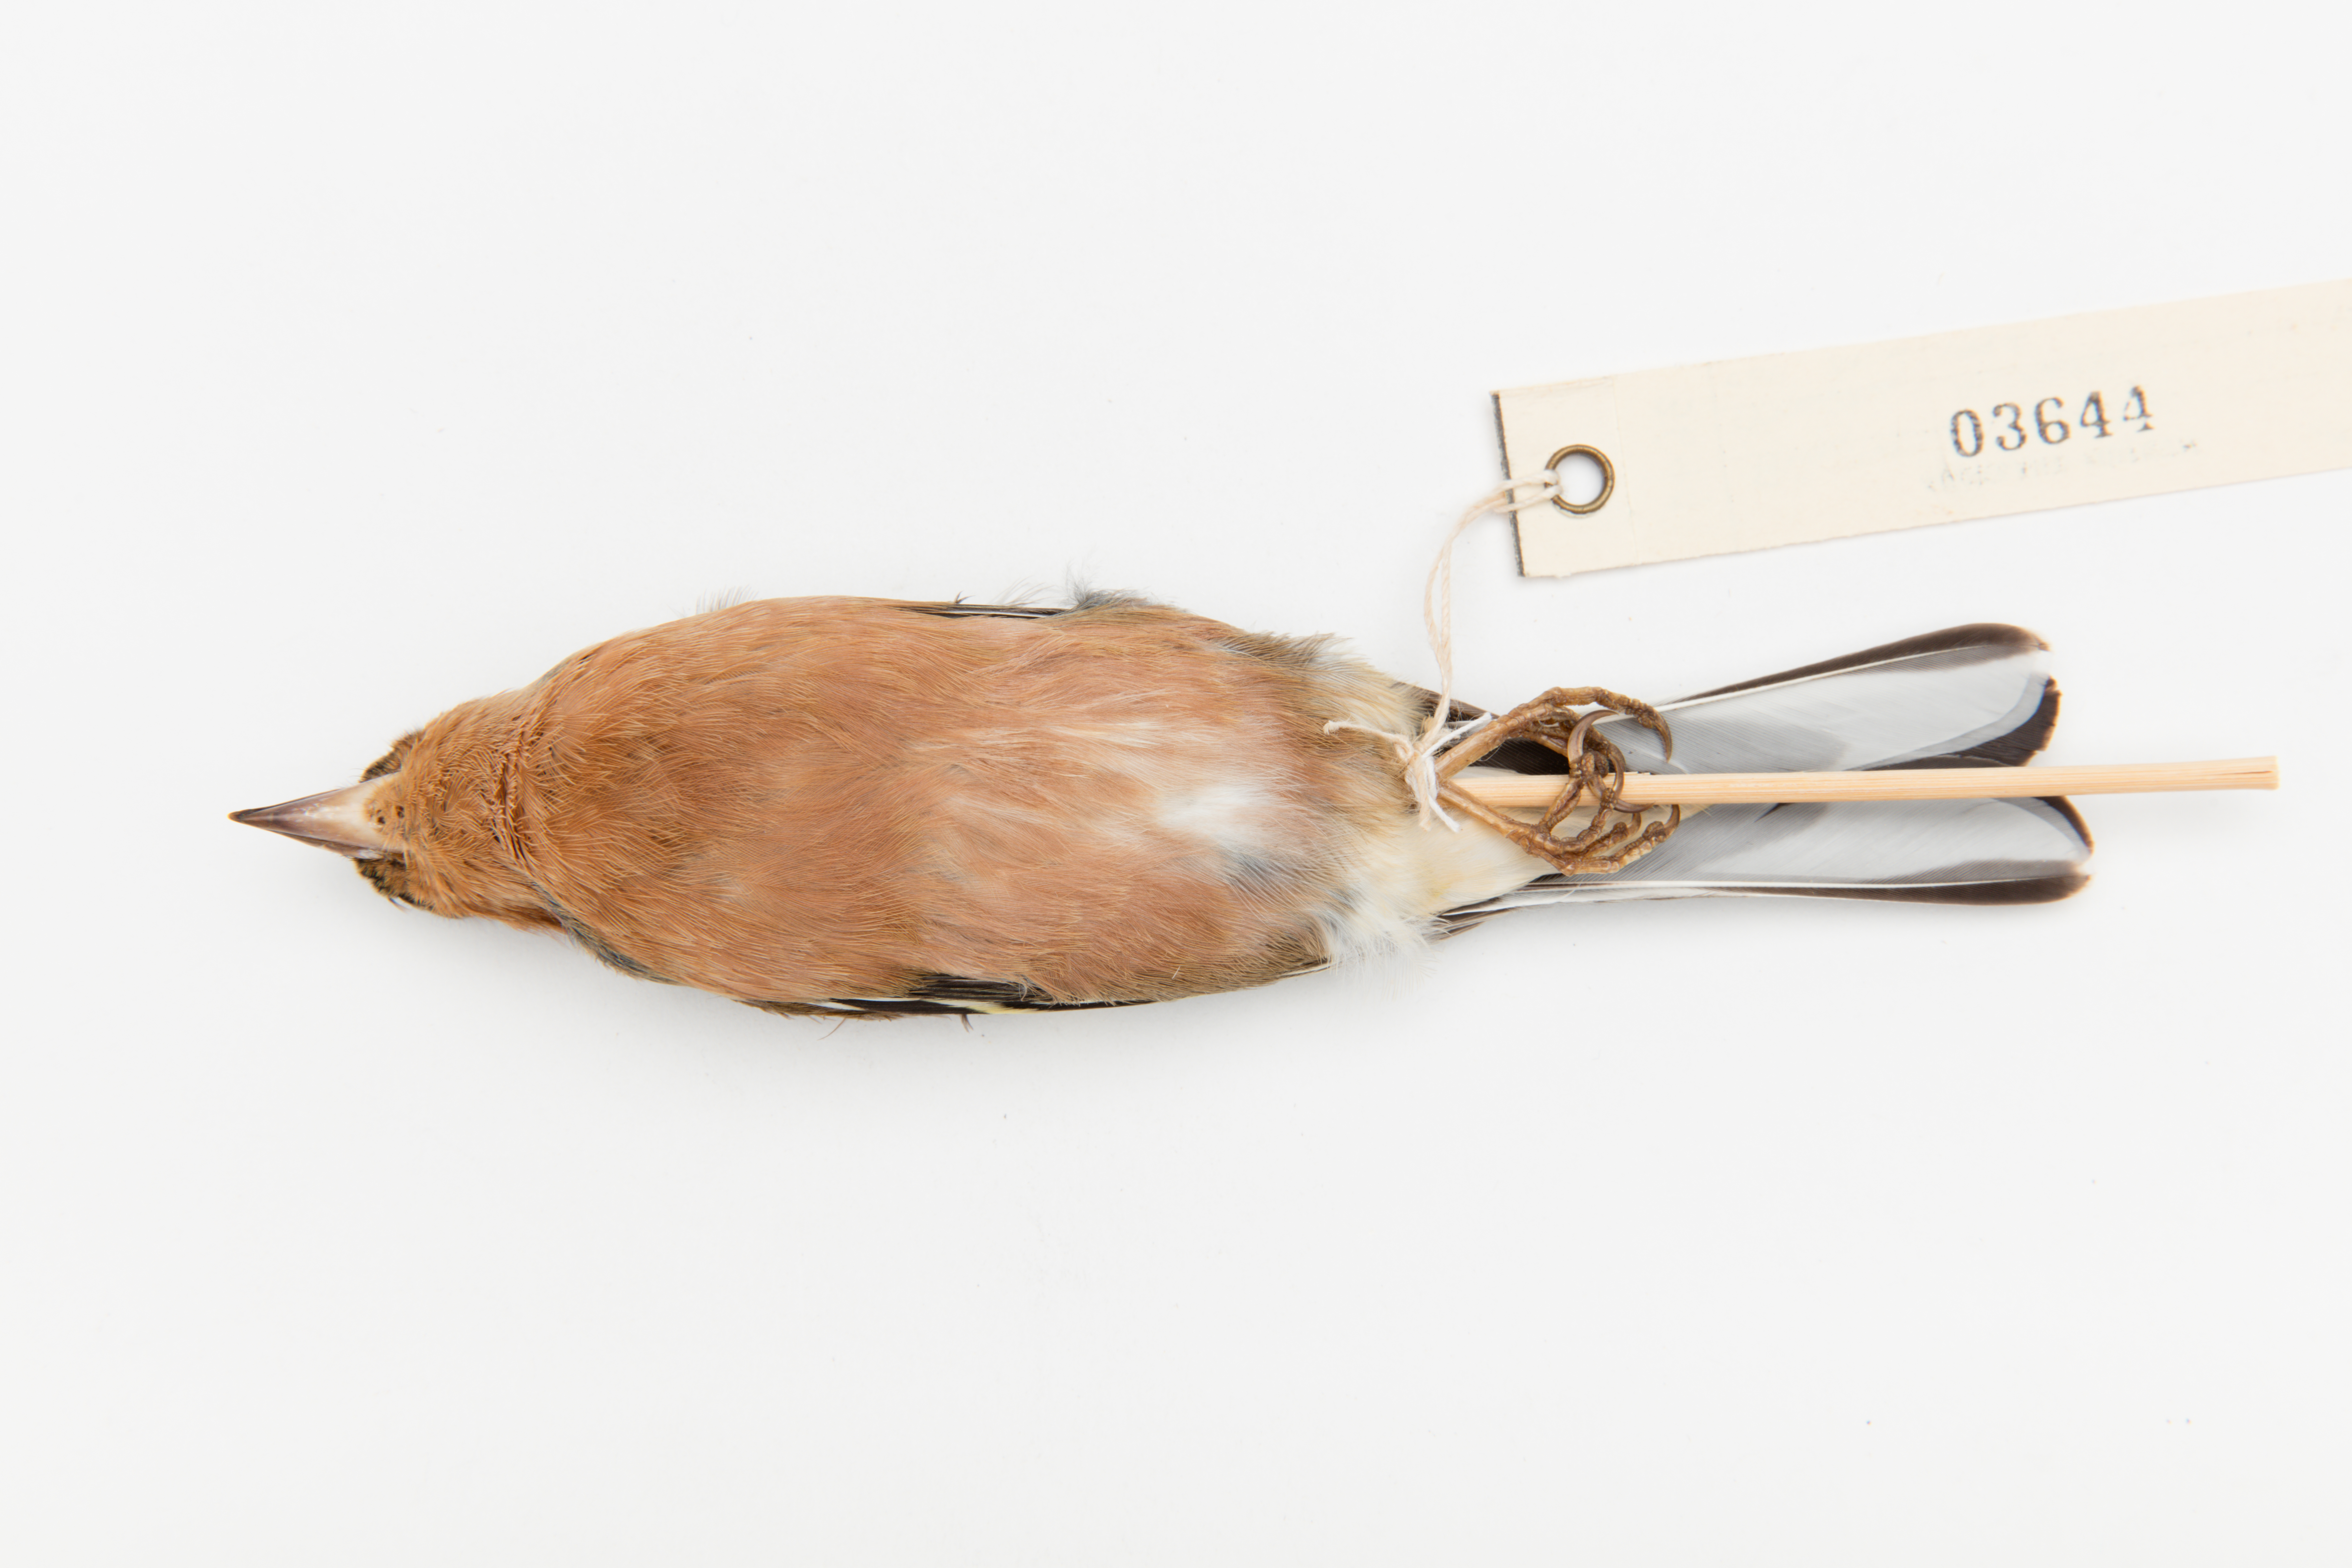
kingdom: Animalia
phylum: Chordata
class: Aves
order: Passeriformes
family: Fringillidae
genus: Fringilla
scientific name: Fringilla coelebs
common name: Common chaffinch
